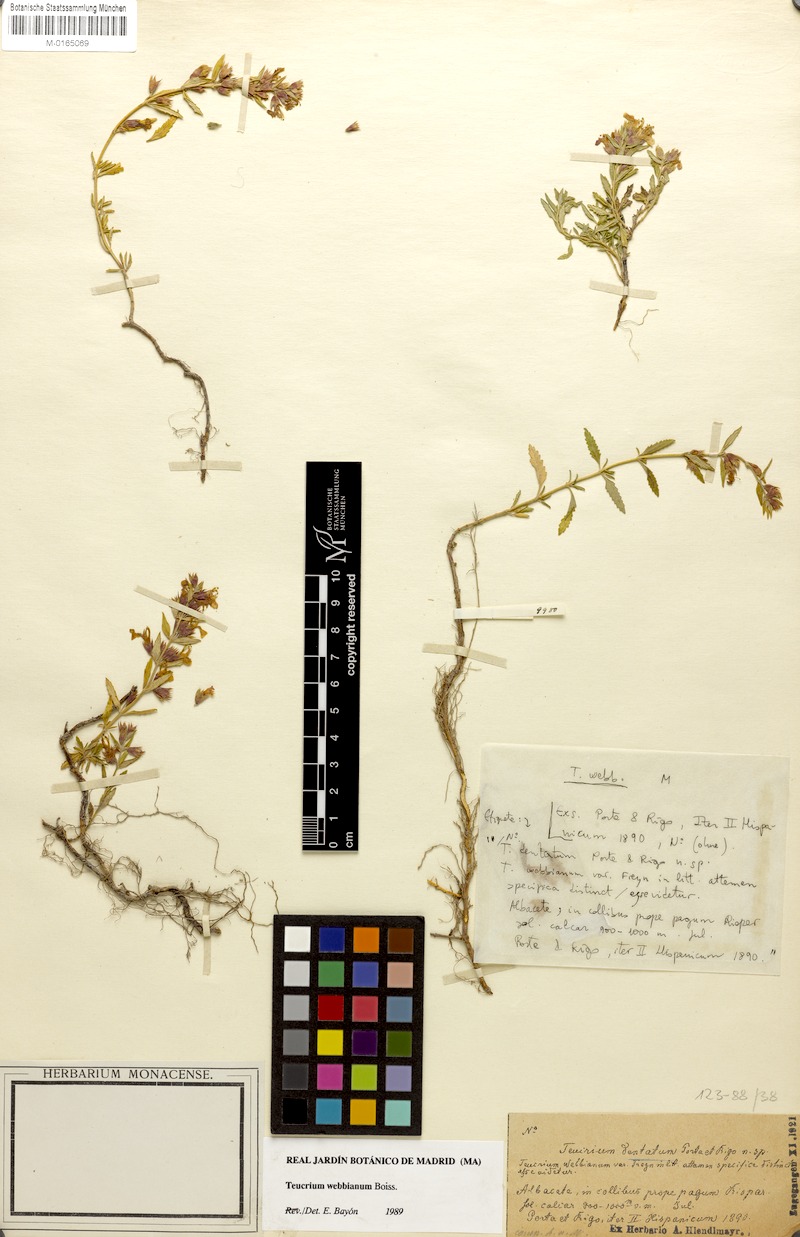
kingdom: Plantae
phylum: Tracheophyta
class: Magnoliopsida
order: Lamiales
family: Lamiaceae
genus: Teucrium
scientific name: Teucrium webbianum
